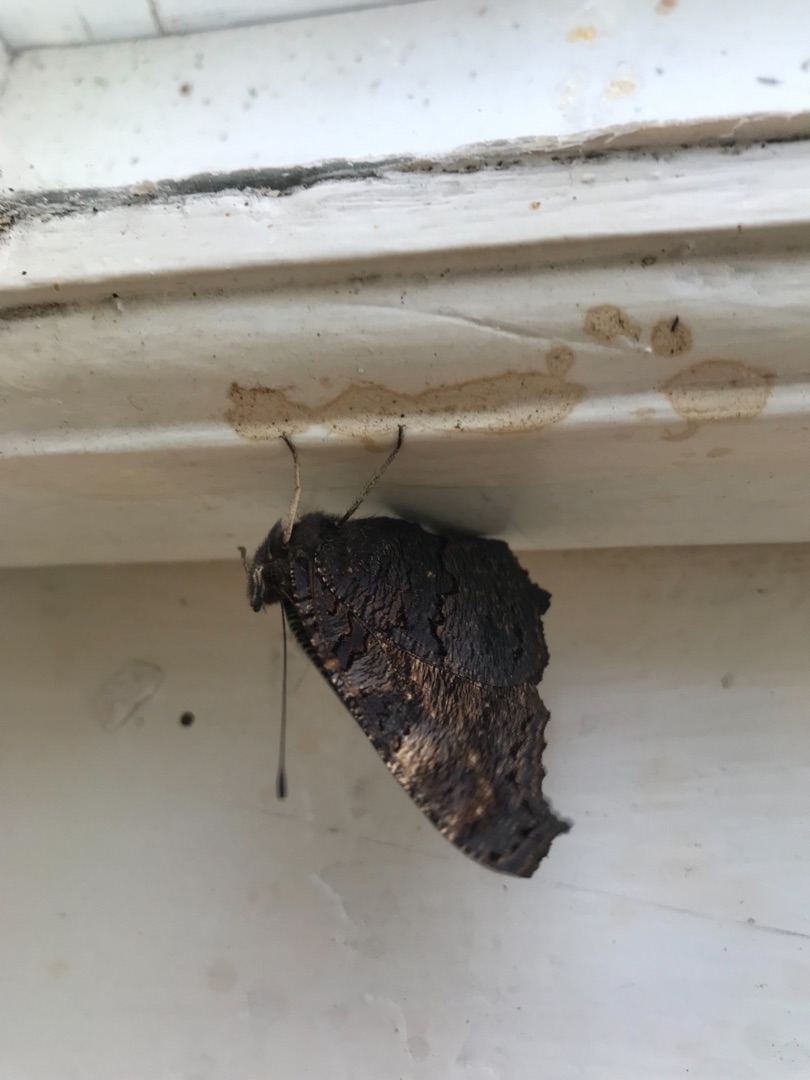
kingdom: Animalia
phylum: Arthropoda
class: Insecta
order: Lepidoptera
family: Nymphalidae
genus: Aglais
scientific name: Aglais io
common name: Dagpåfugleøje
